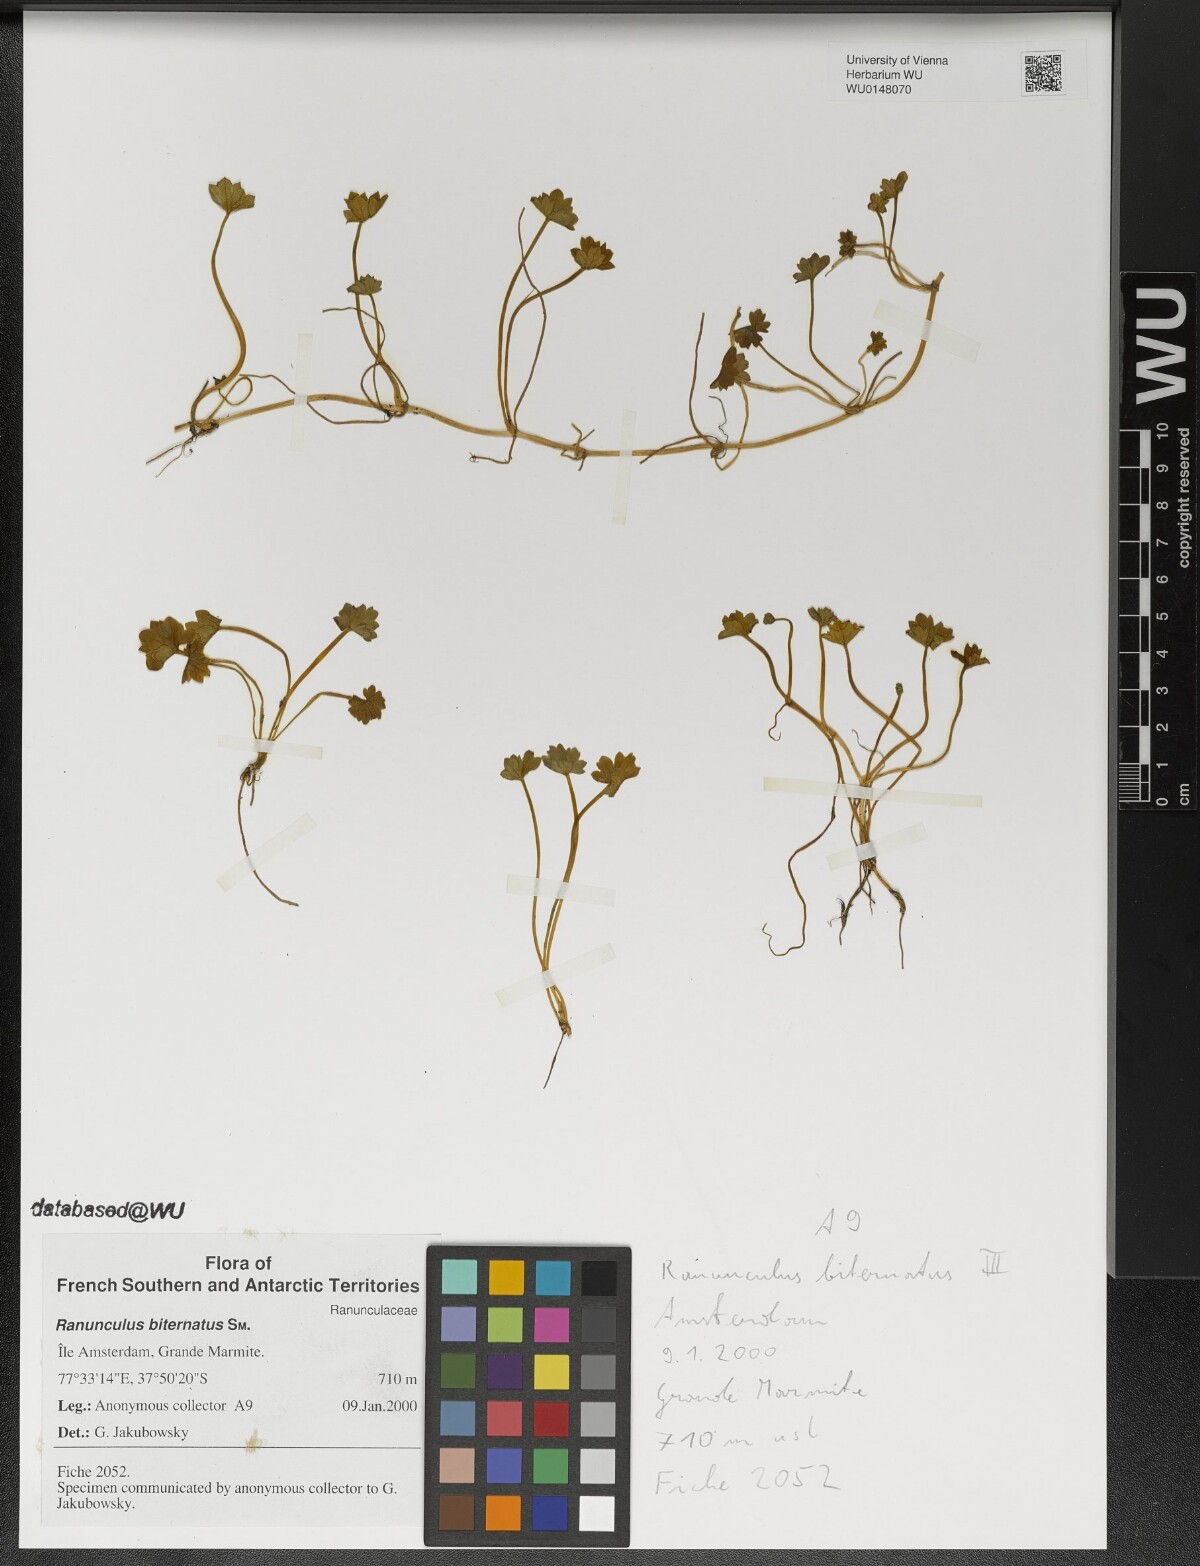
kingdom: Plantae
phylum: Tracheophyta
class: Magnoliopsida
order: Ranunculales
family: Ranunculaceae
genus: Ranunculus
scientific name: Ranunculus biternatus
